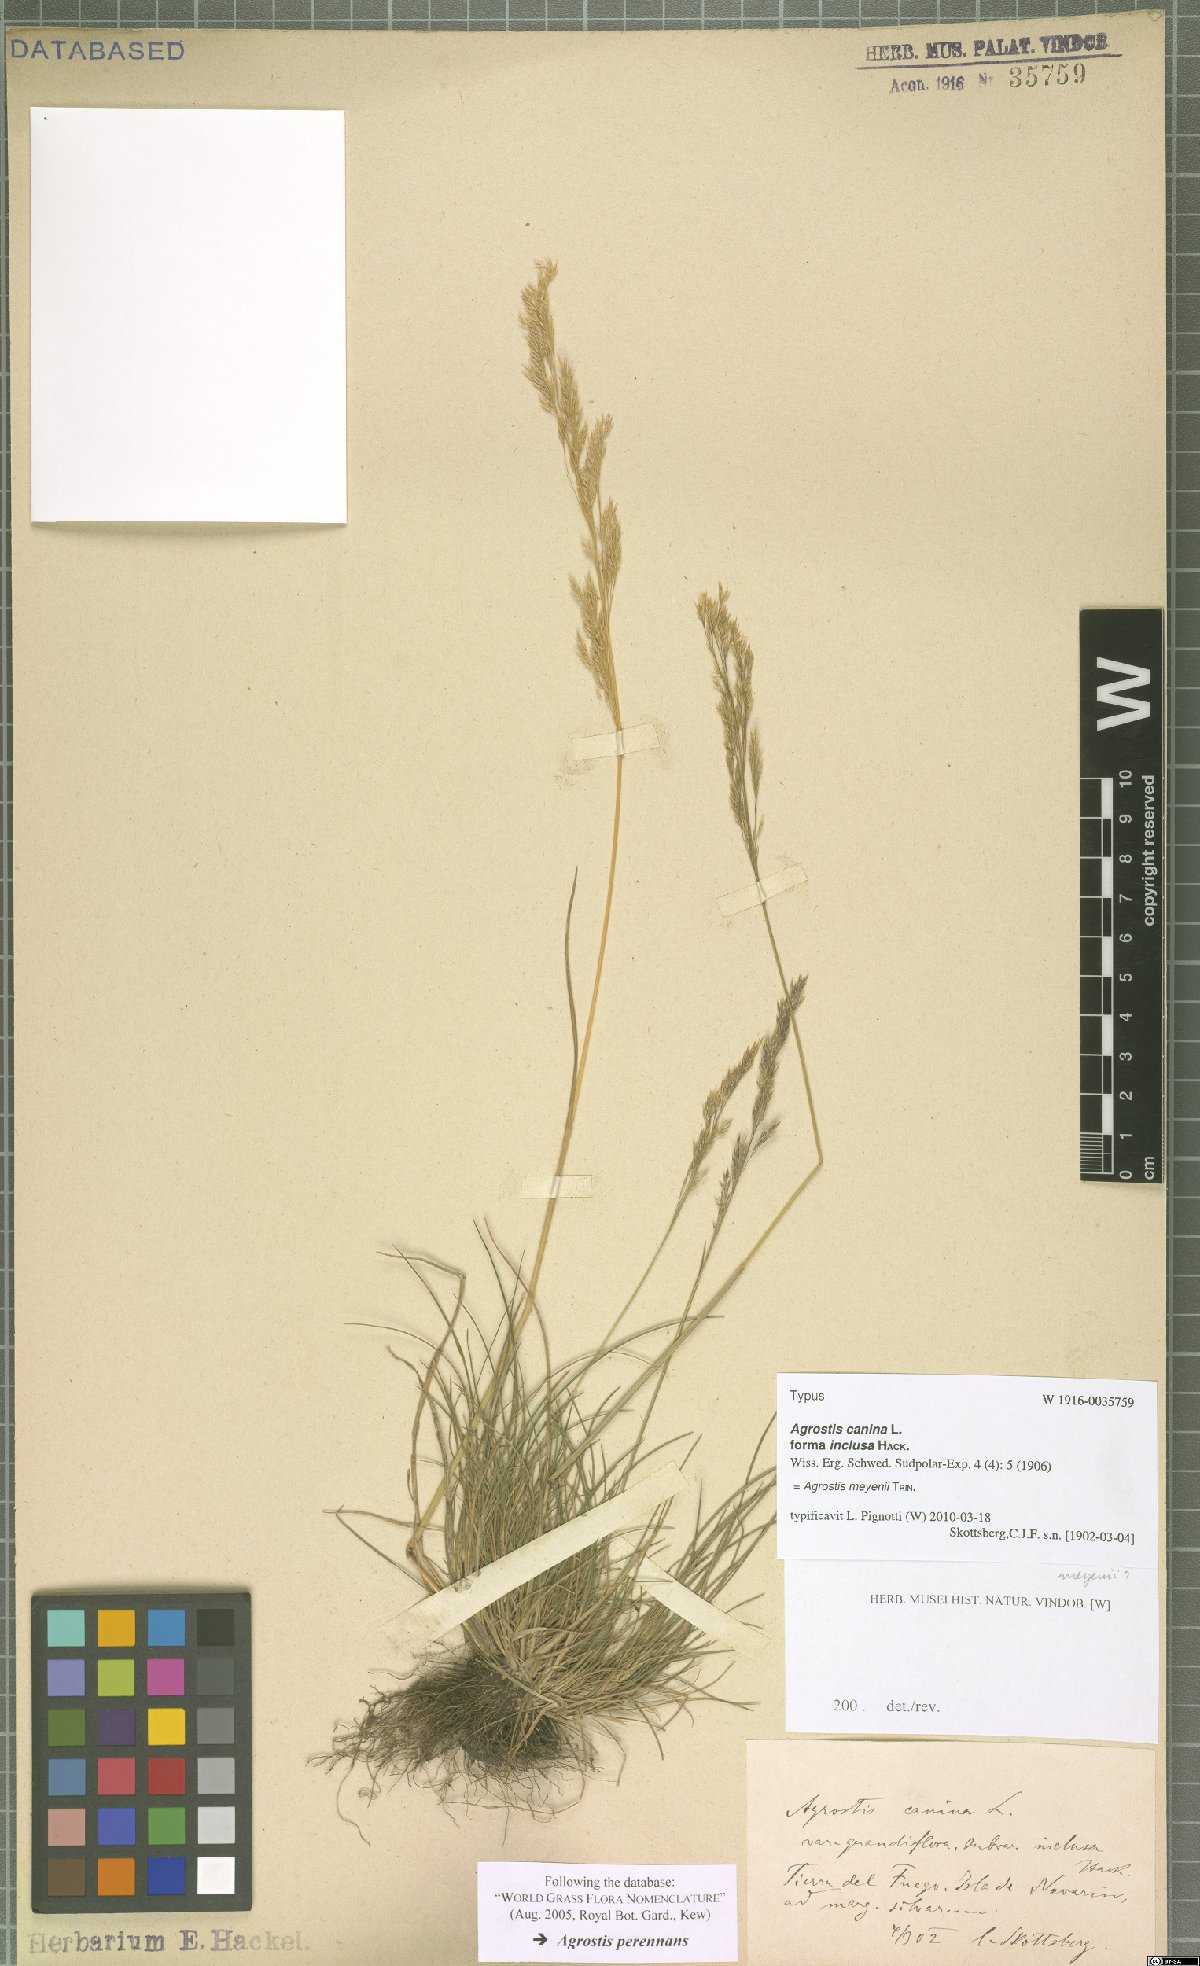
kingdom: Plantae
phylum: Tracheophyta
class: Liliopsida
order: Poales
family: Poaceae
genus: Agrostis
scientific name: Agrostis meyenii
